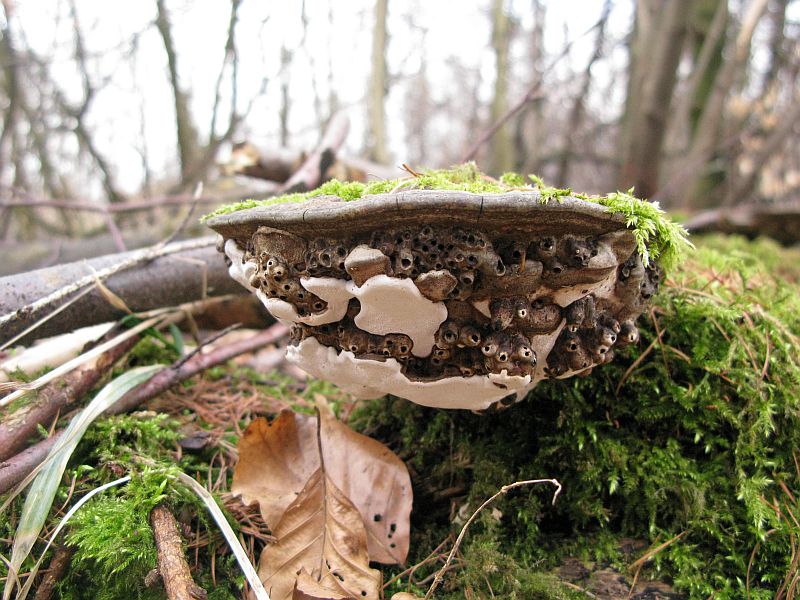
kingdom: Fungi
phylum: Basidiomycota
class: Agaricomycetes
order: Polyporales
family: Polyporaceae
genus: Ganoderma
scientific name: Ganoderma applanatum
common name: flad lakporesvamp
